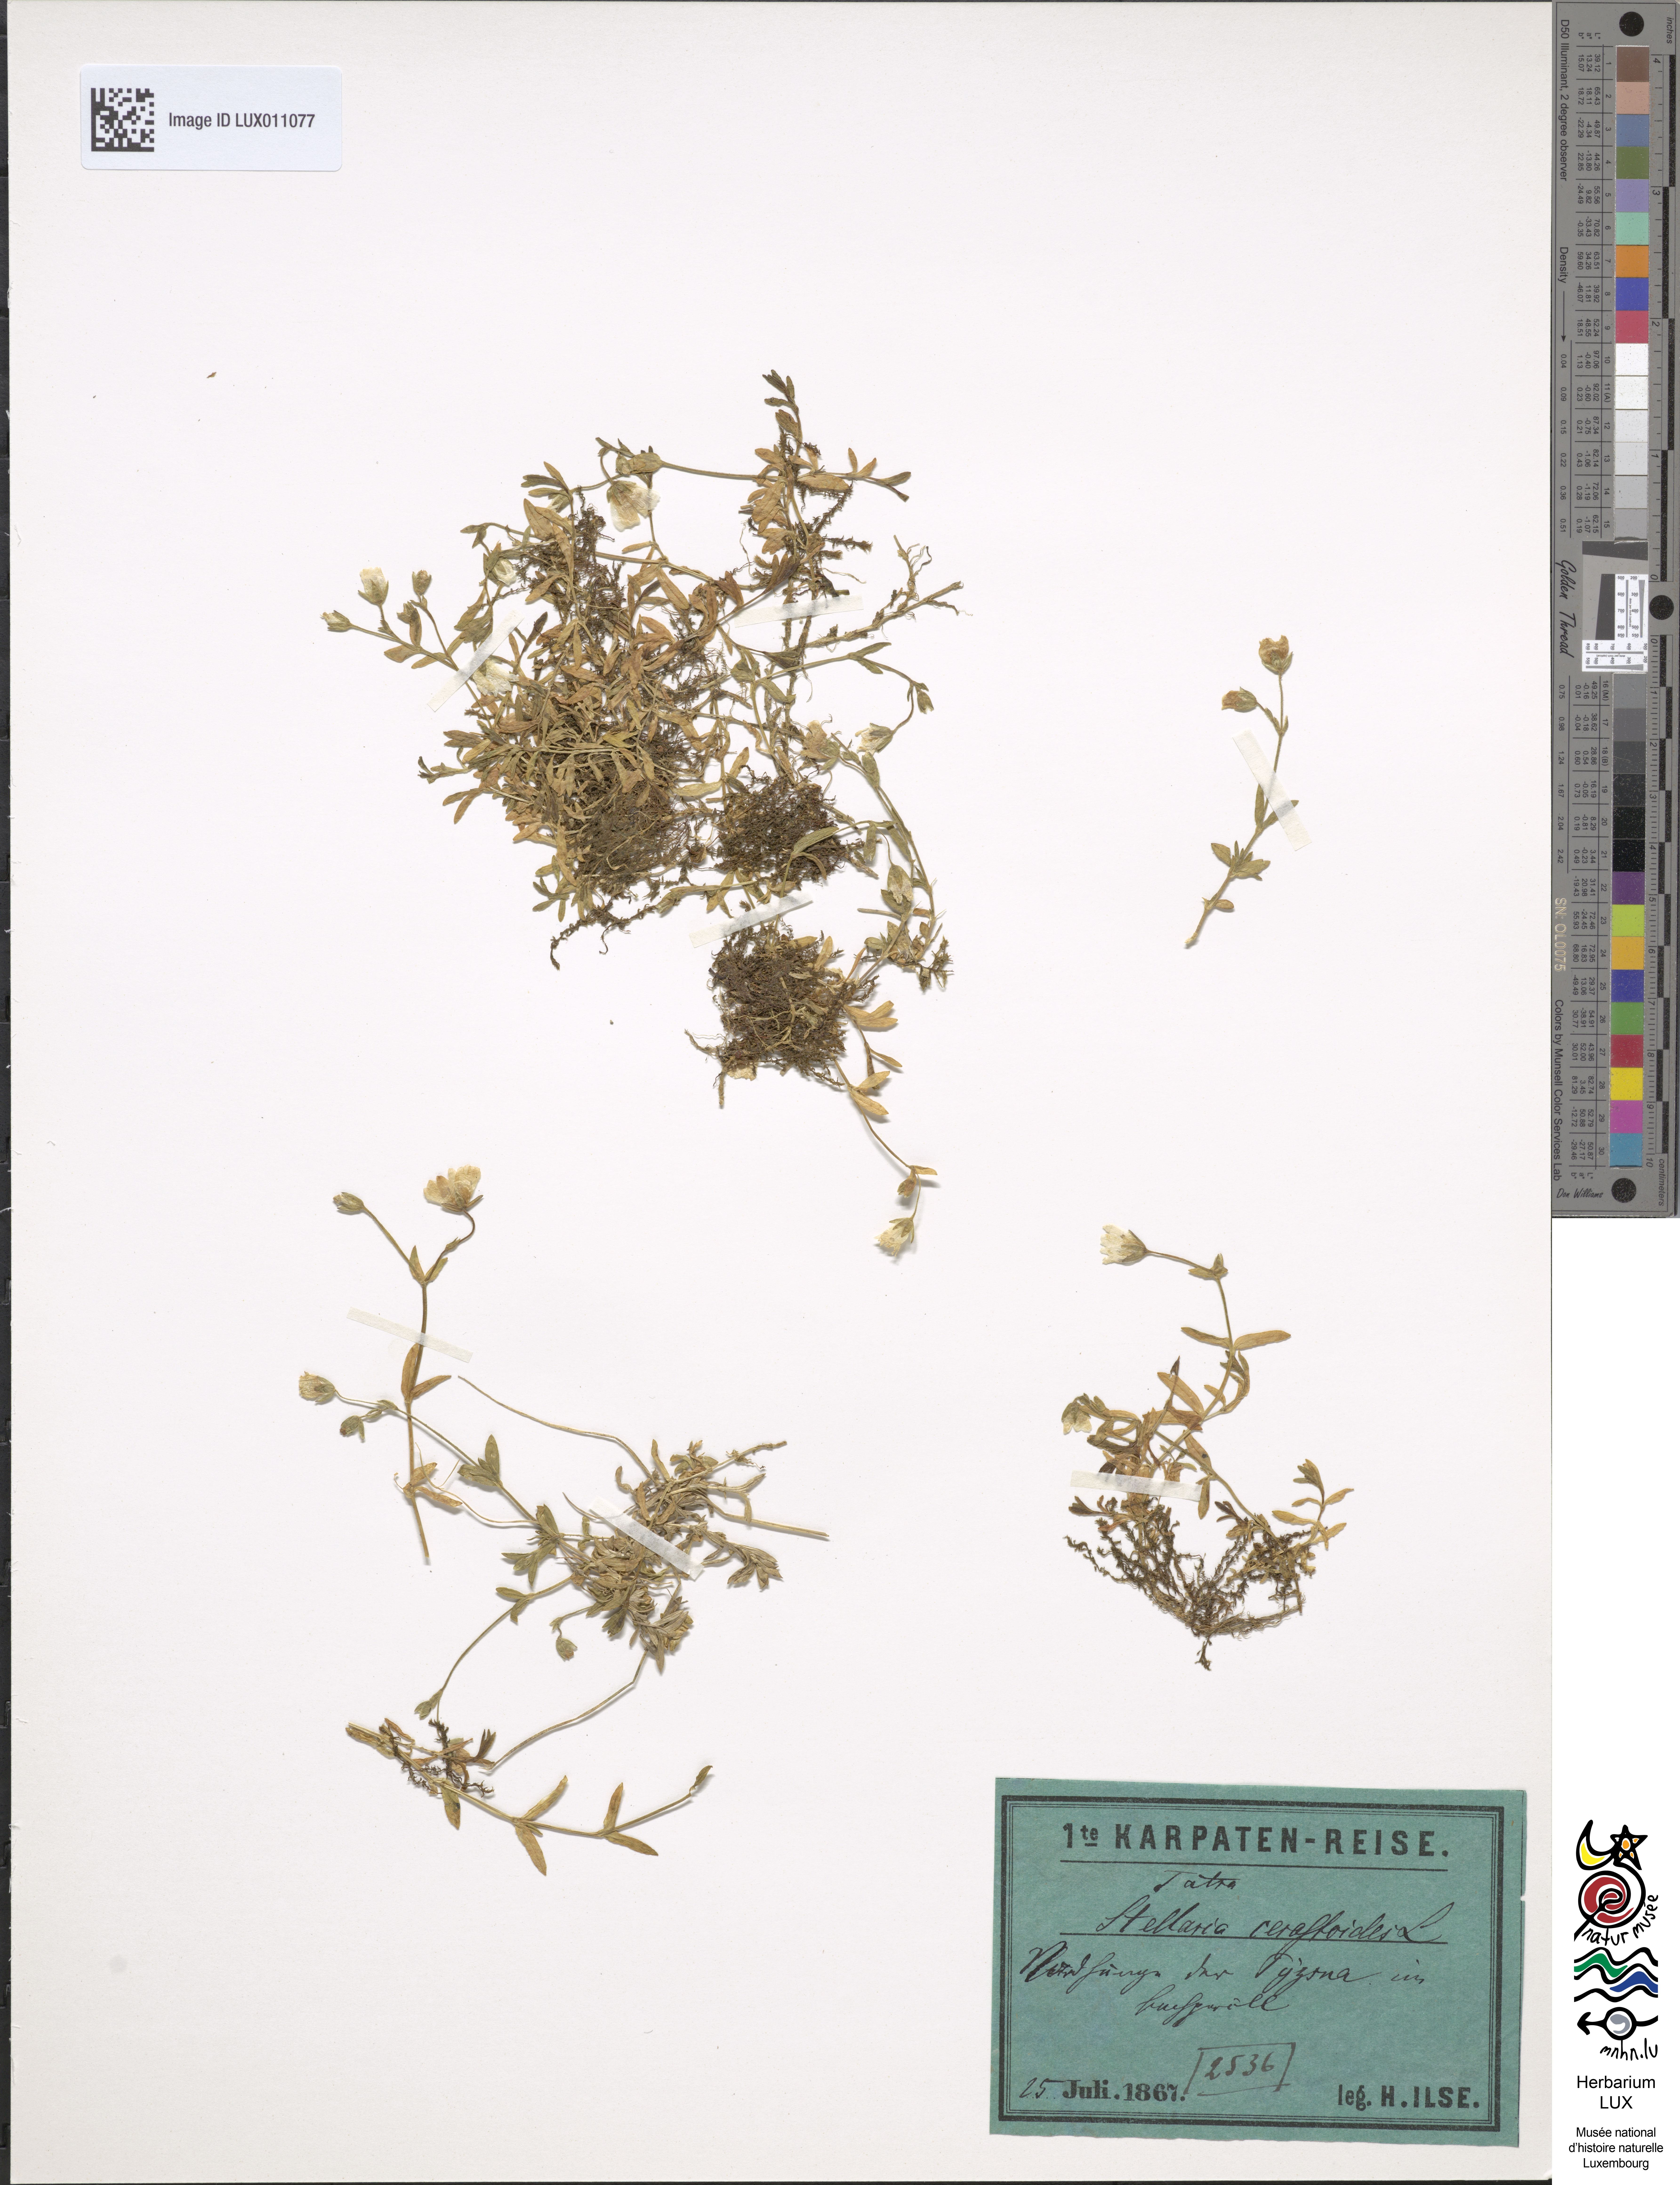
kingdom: Plantae
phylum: Tracheophyta
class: Magnoliopsida
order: Caryophyllales
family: Caryophyllaceae
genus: Dichodon
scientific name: Dichodon cerastoides
